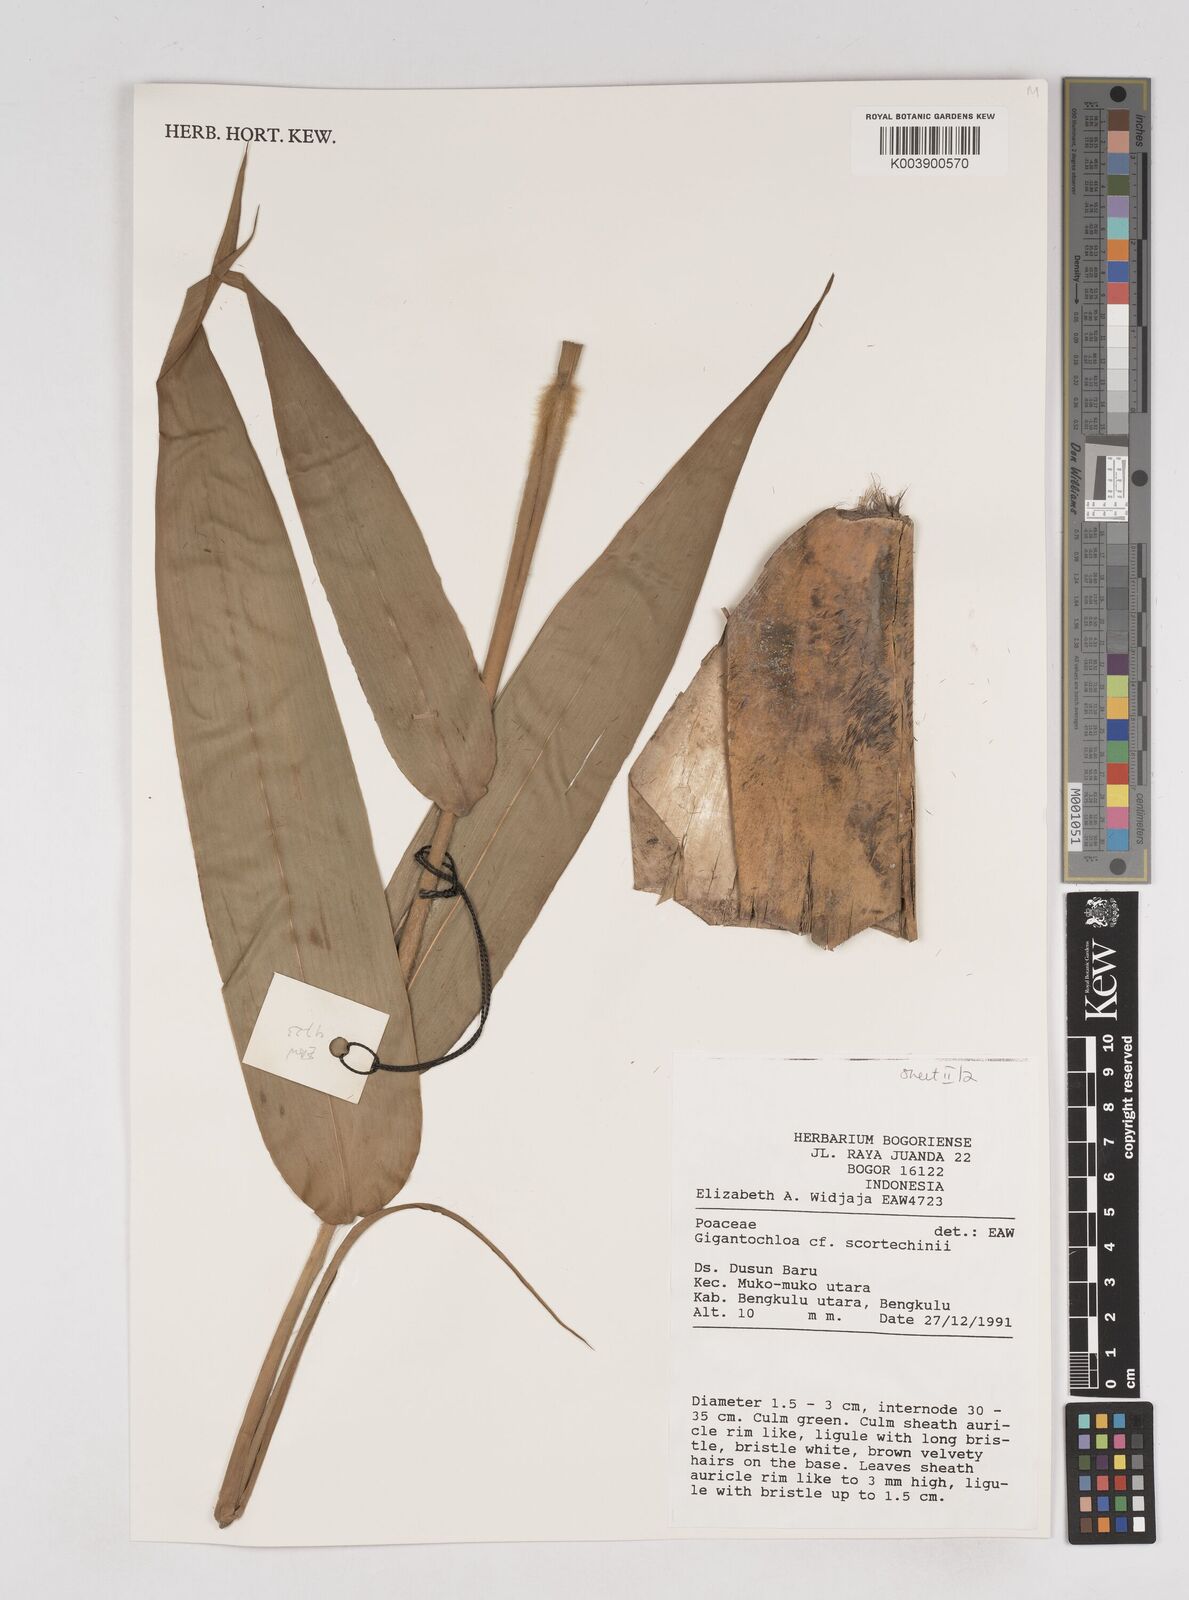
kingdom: Plantae
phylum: Tracheophyta
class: Liliopsida
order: Poales
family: Poaceae
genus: Gigantochloa
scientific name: Gigantochloa scortechinii
